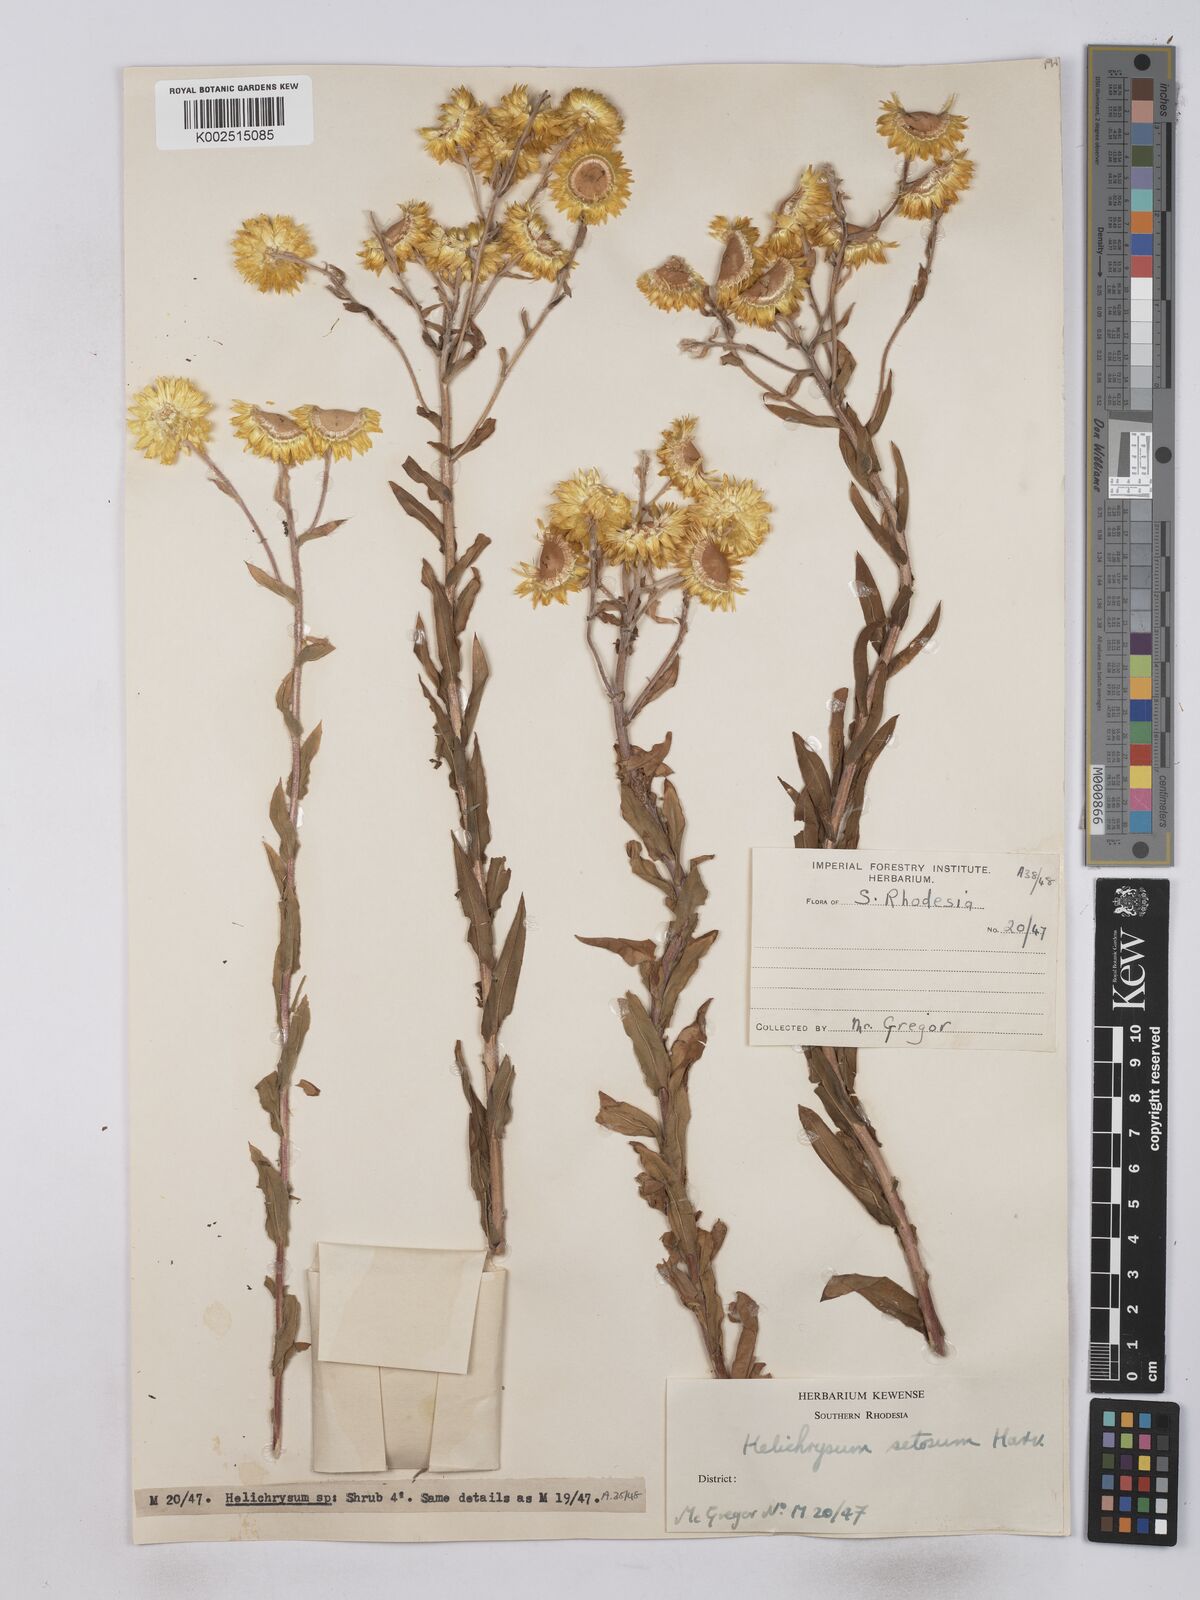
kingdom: Plantae
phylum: Tracheophyta
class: Magnoliopsida
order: Asterales
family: Asteraceae
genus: Helichrysum
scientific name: Helichrysum setosum
